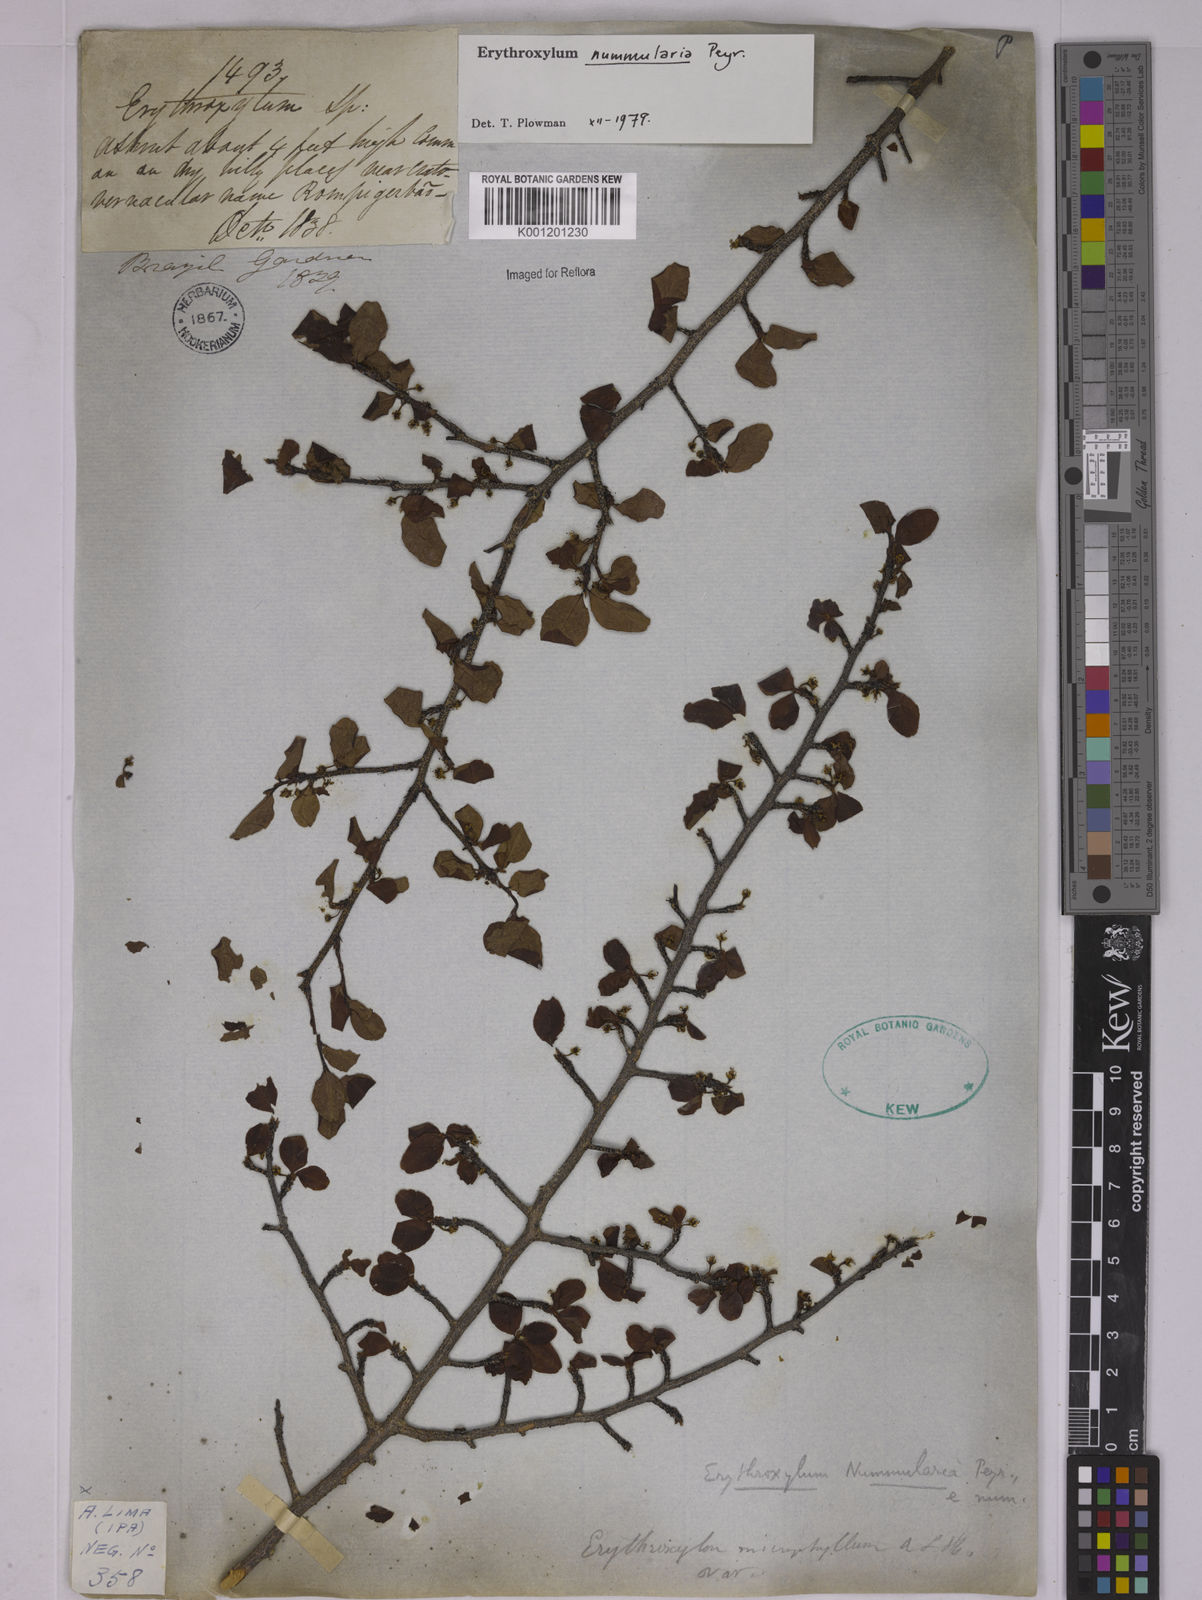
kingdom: Plantae
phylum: Tracheophyta
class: Magnoliopsida
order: Malpighiales
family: Erythroxylaceae
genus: Erythroxylum
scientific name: Erythroxylum nummularia
